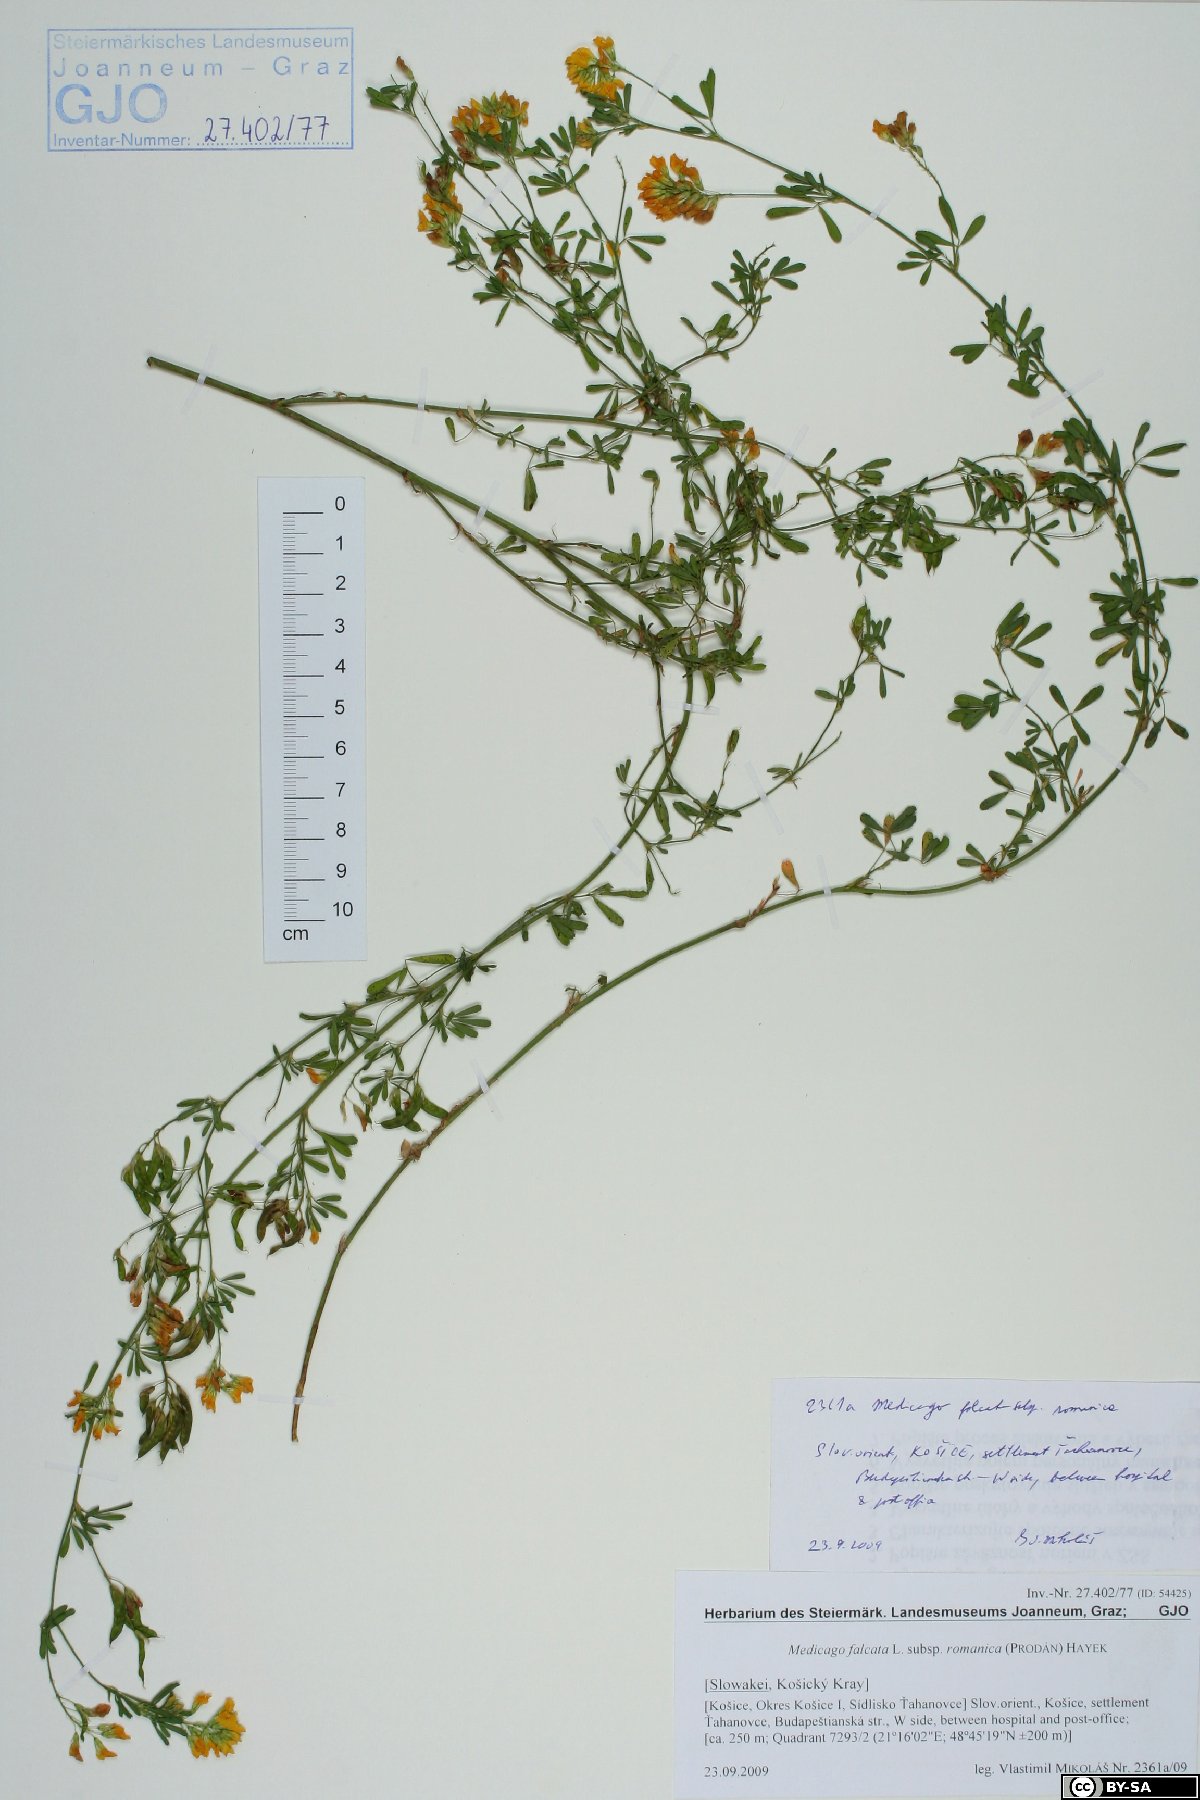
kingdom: Plantae
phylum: Tracheophyta
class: Magnoliopsida
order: Fabales
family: Fabaceae
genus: Medicago
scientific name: Medicago falcata
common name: Sickle medick
